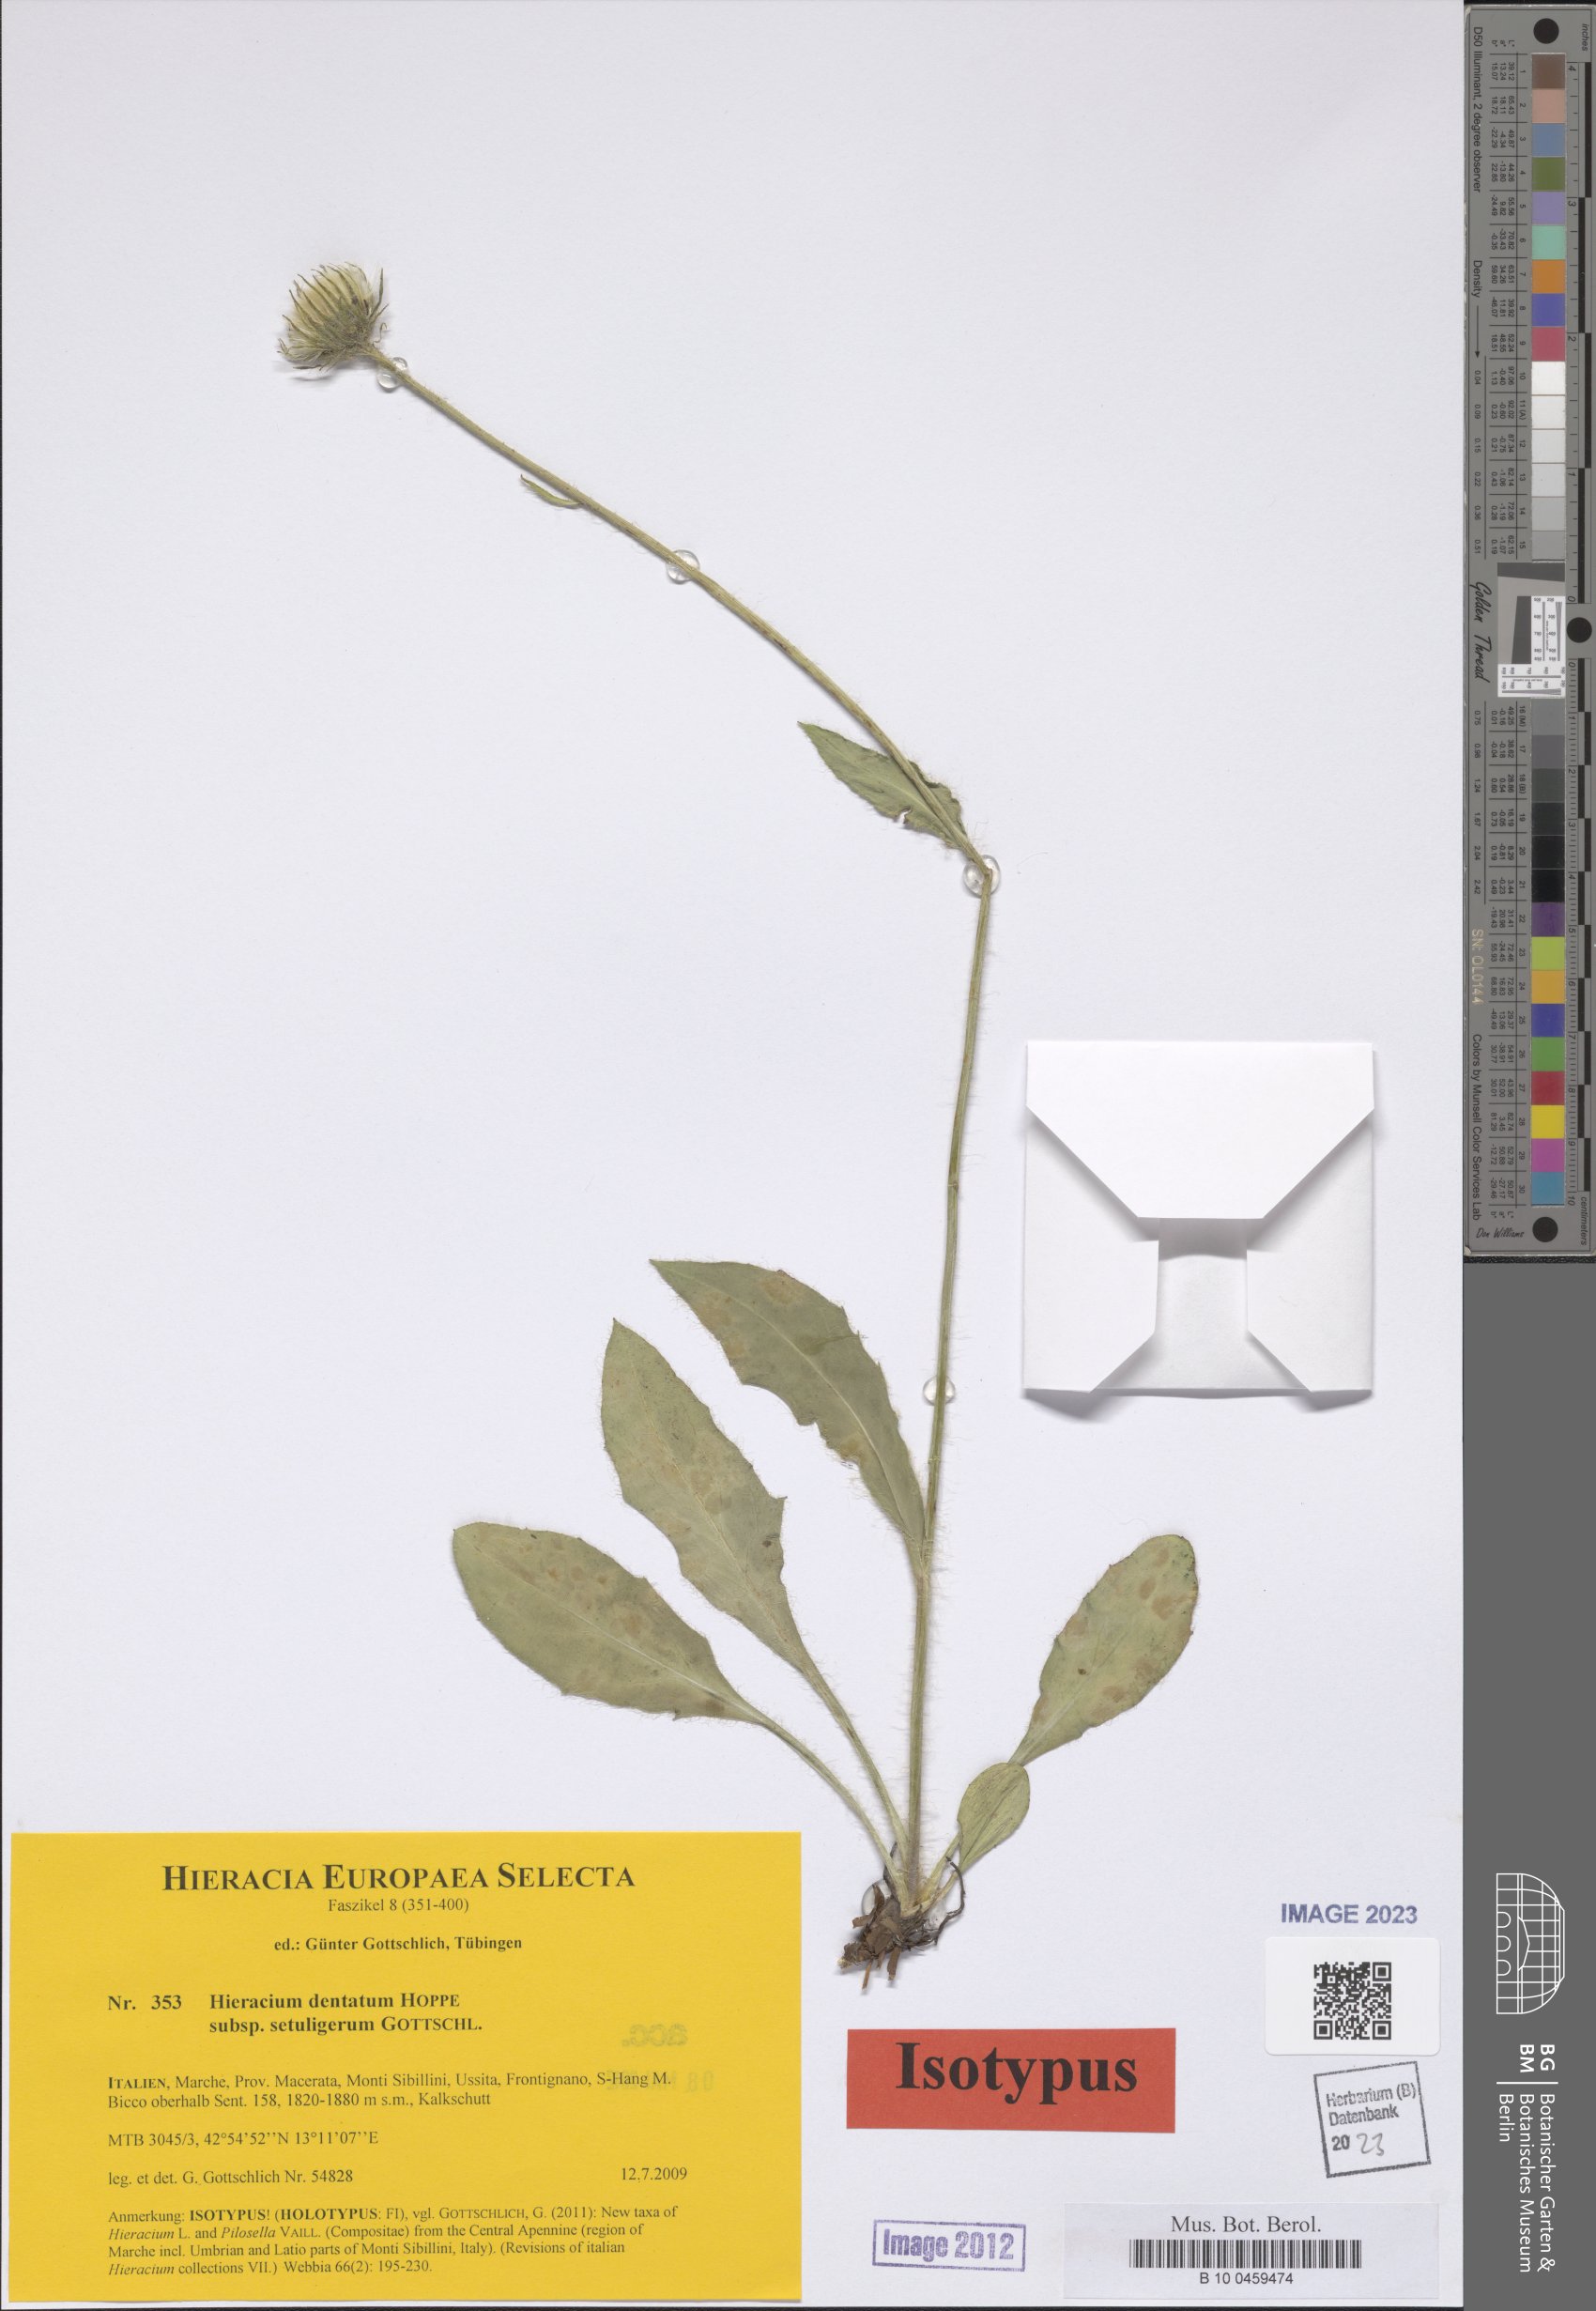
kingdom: Plantae
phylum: Tracheophyta
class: Magnoliopsida
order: Asterales
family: Asteraceae
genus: Hieracium
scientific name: Hieracium dentatum
